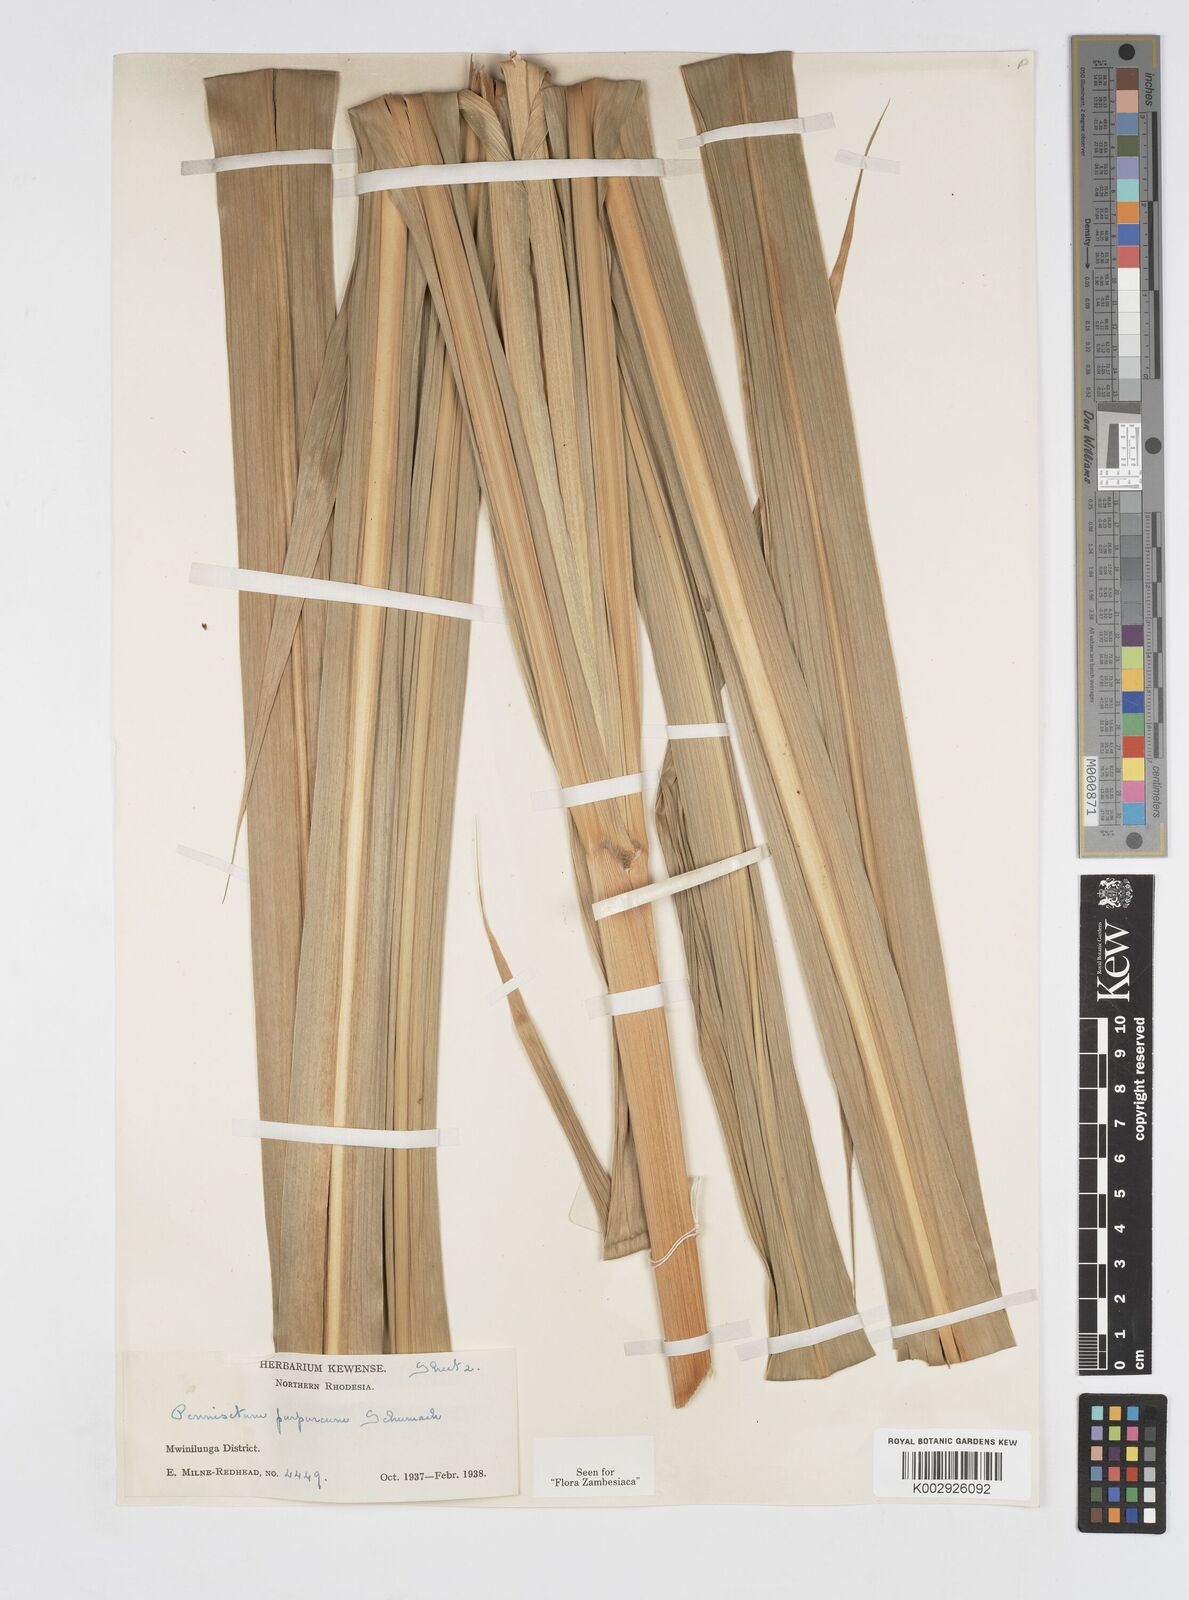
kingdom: Plantae
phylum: Tracheophyta
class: Liliopsida
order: Poales
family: Poaceae
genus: Cenchrus
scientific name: Cenchrus purpureus
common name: Elephant grass
